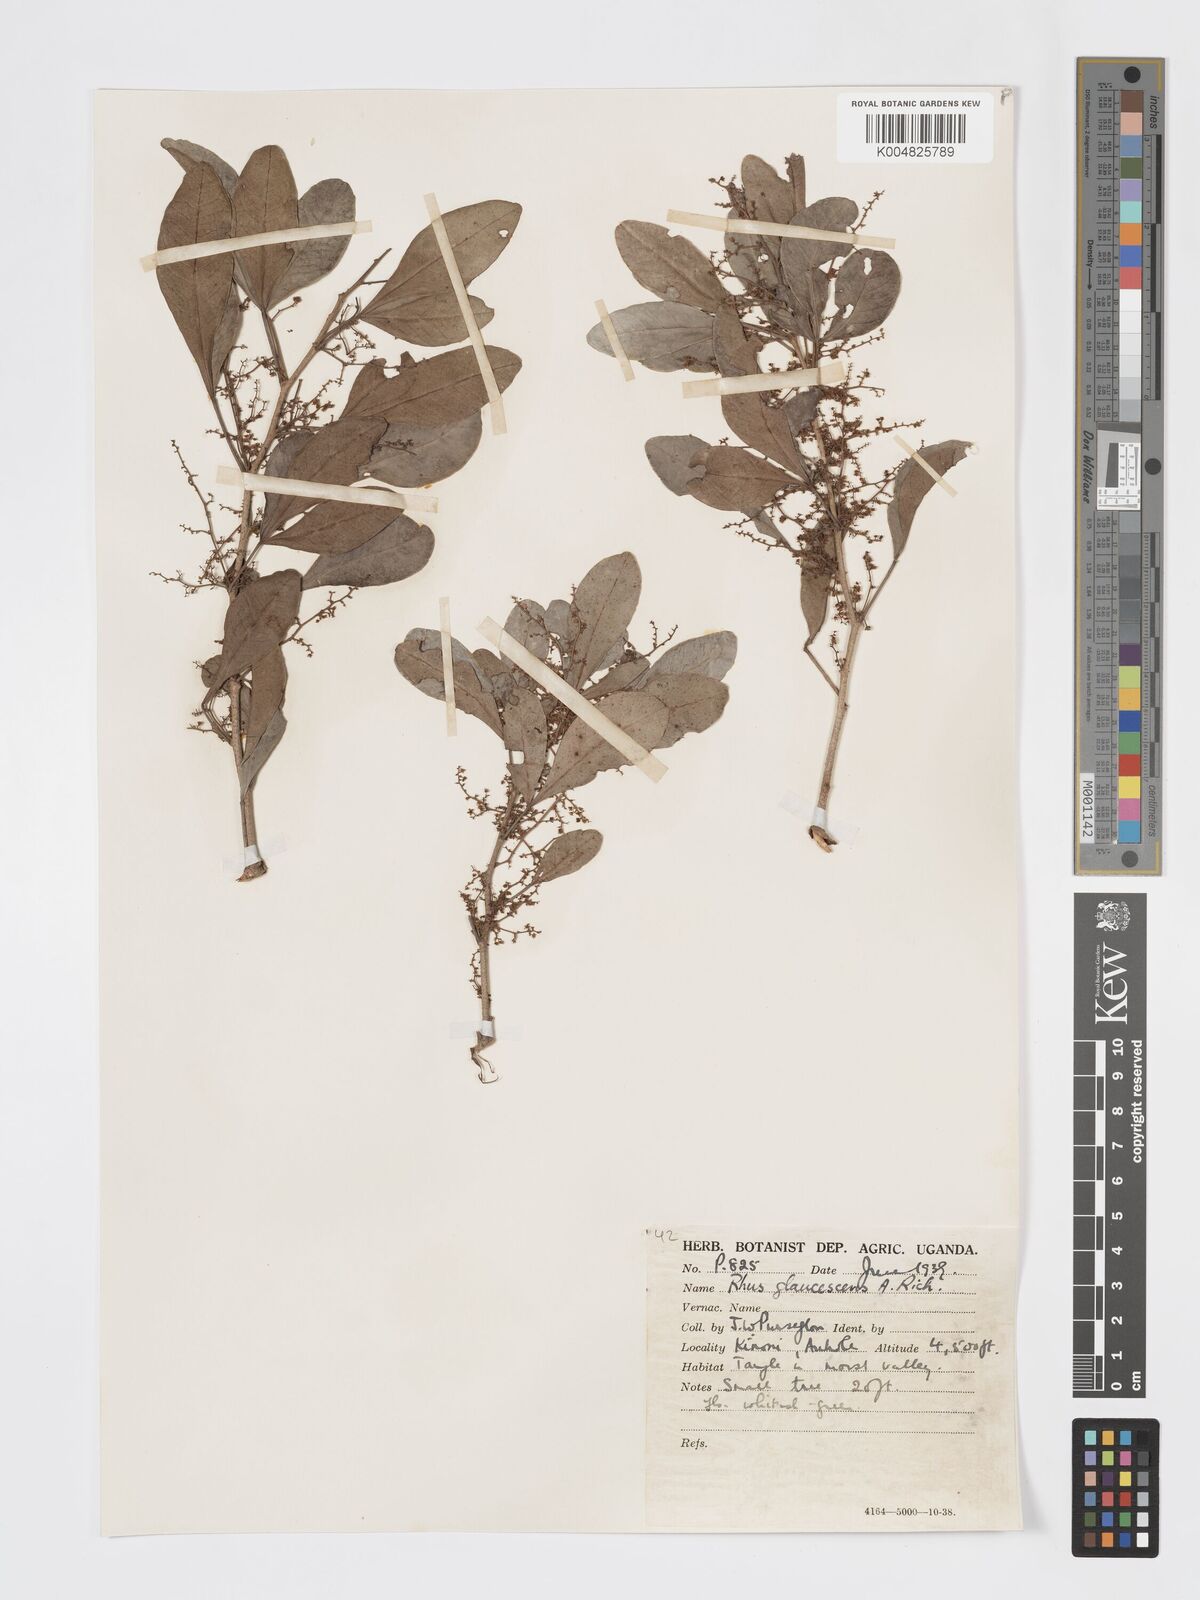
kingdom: Plantae
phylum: Tracheophyta
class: Magnoliopsida
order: Sapindales
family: Anacardiaceae
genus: Searsia
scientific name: Searsia natalensis
